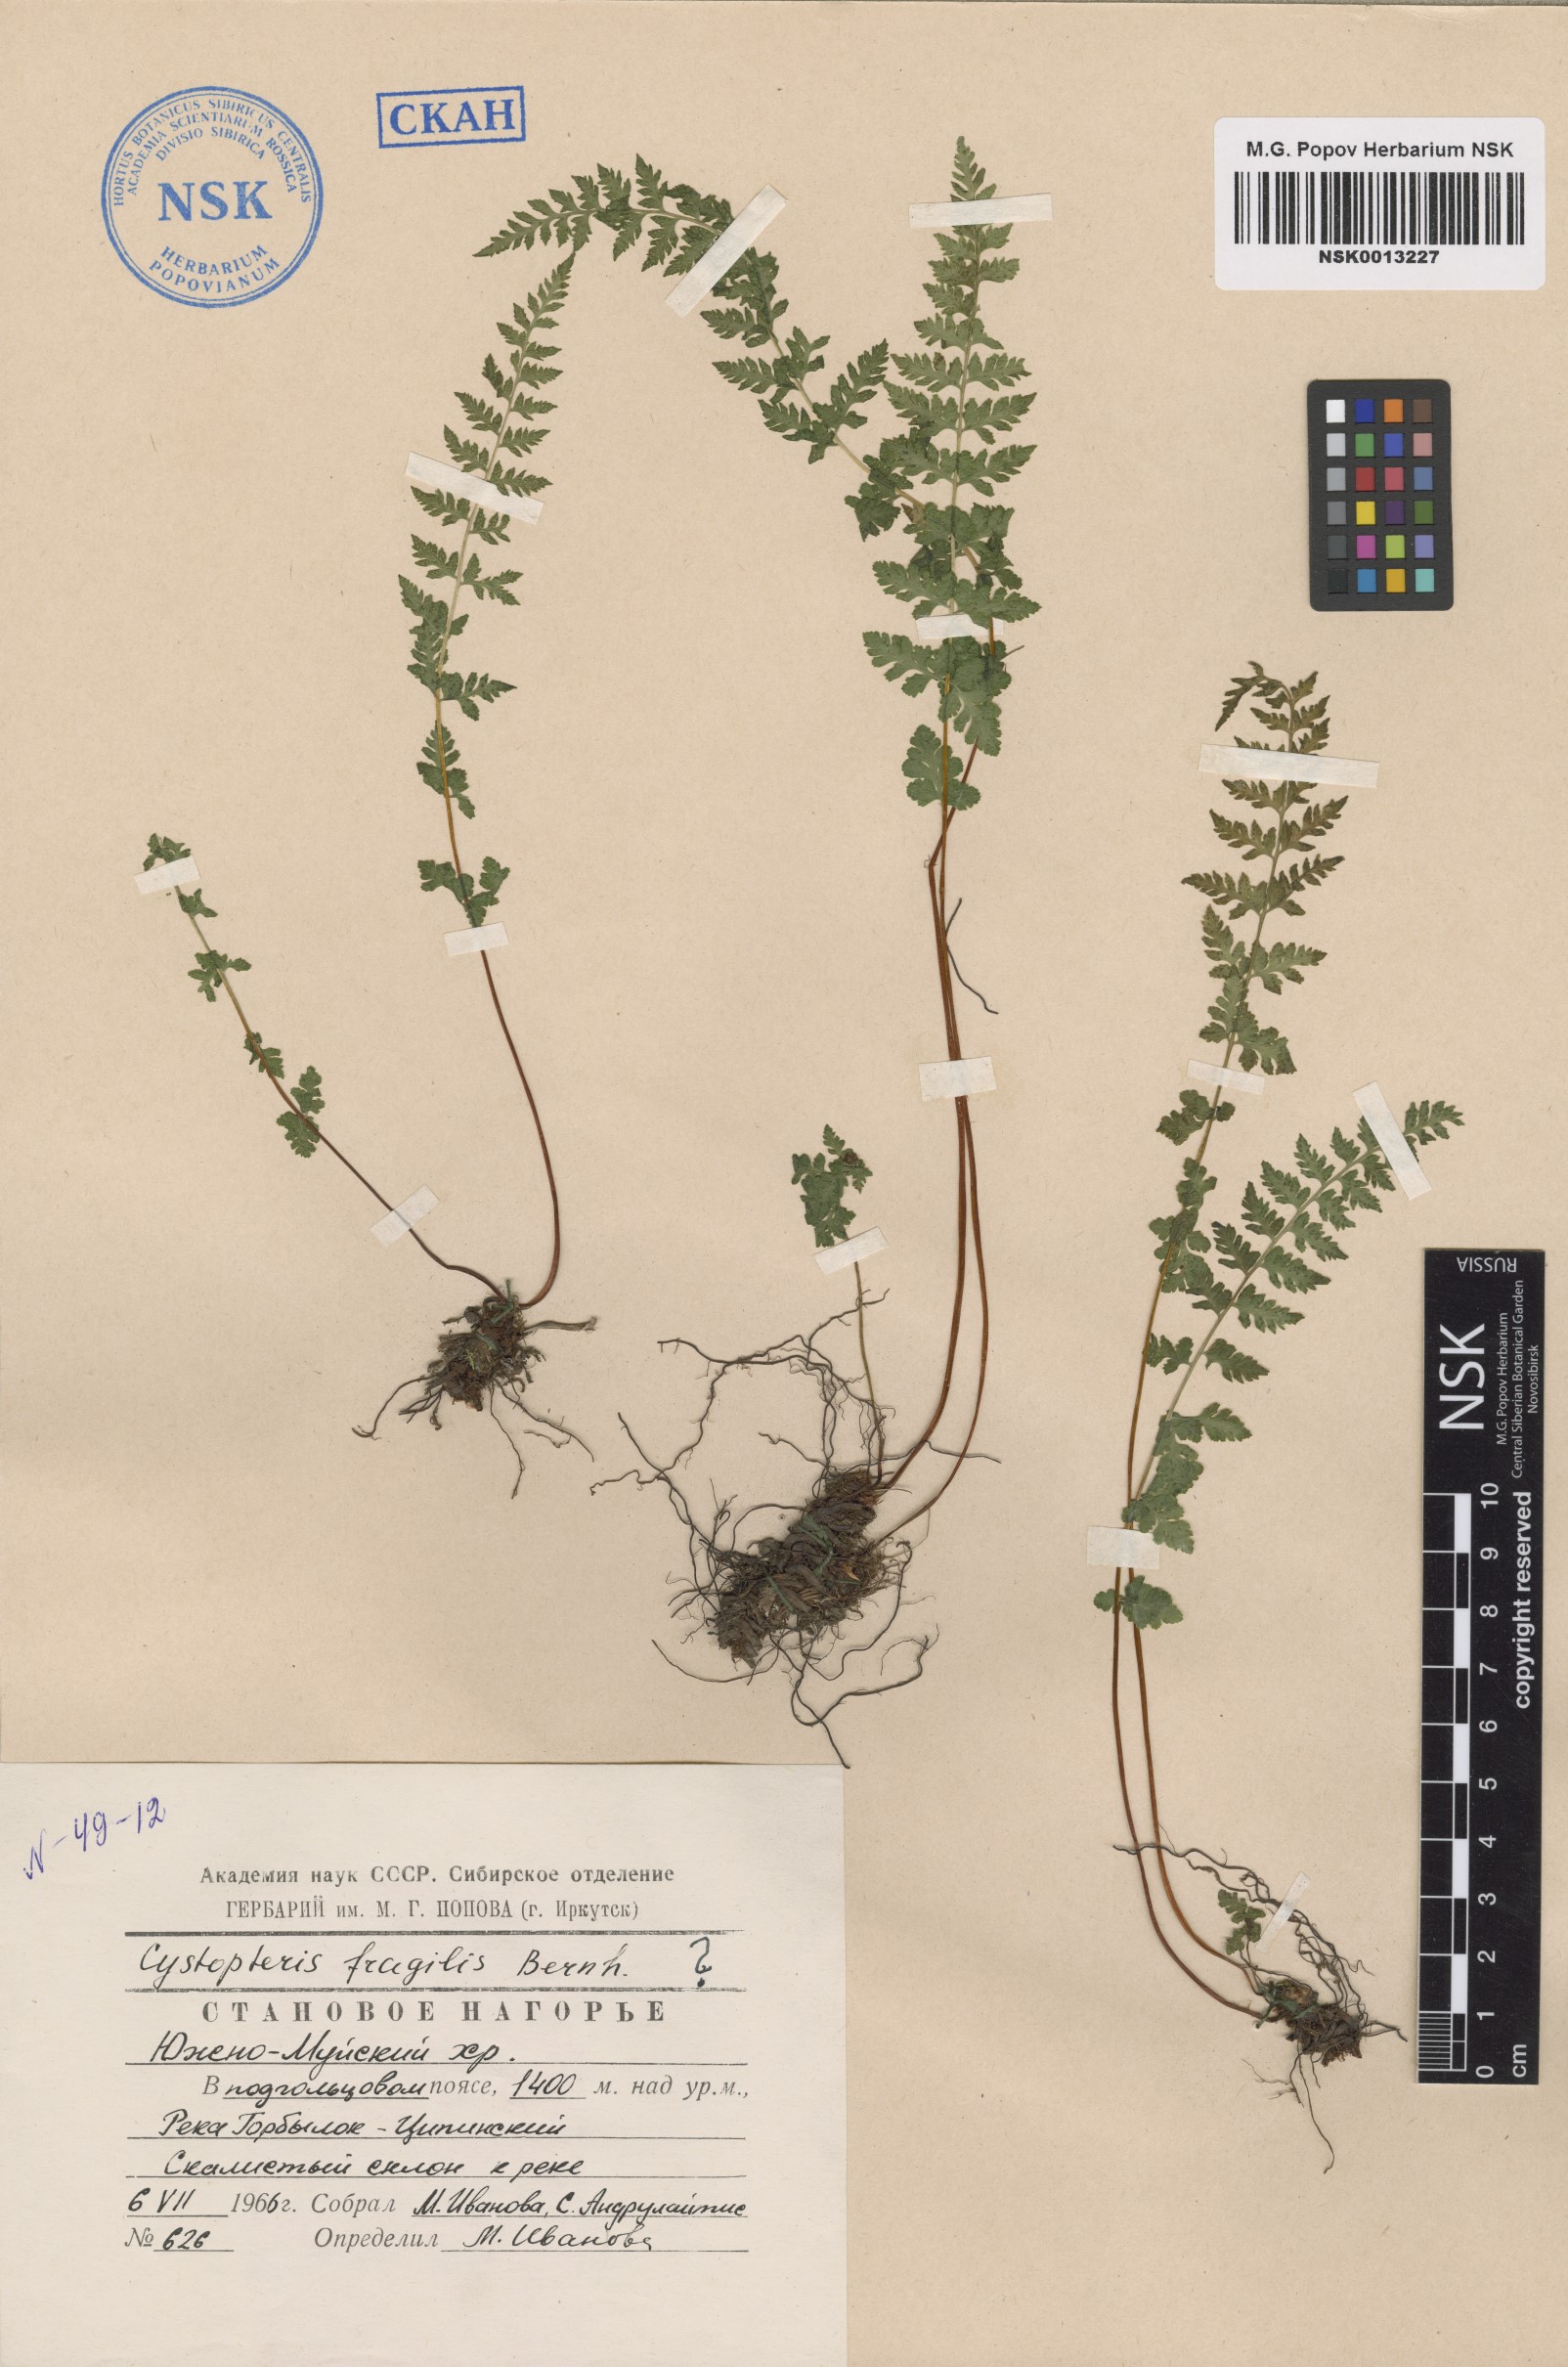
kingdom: Plantae
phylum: Tracheophyta
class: Polypodiopsida
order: Polypodiales
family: Cystopteridaceae
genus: Cystopteris
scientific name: Cystopteris fragilis
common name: Brittle bladder fern
